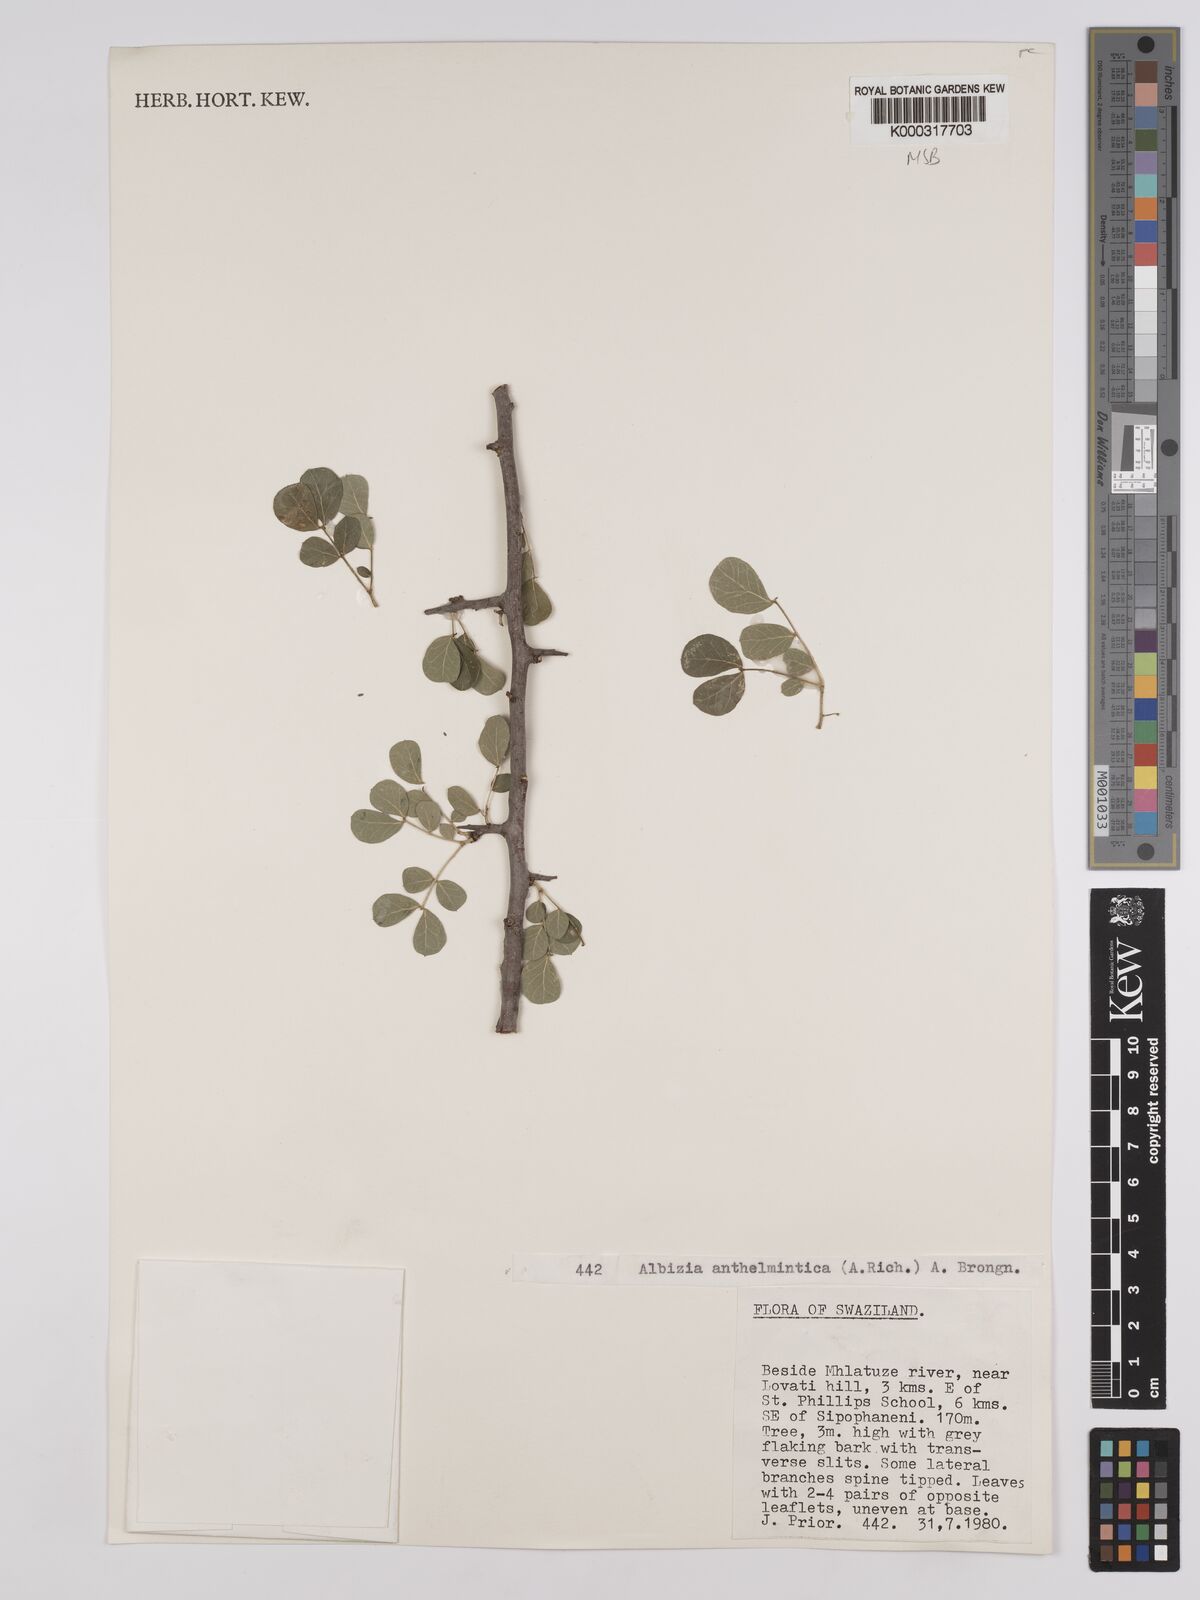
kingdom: Plantae
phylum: Tracheophyta
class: Magnoliopsida
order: Fabales
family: Fabaceae
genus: Albizia
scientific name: Albizia anthelmintica
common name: Worm-bark false-thorn
